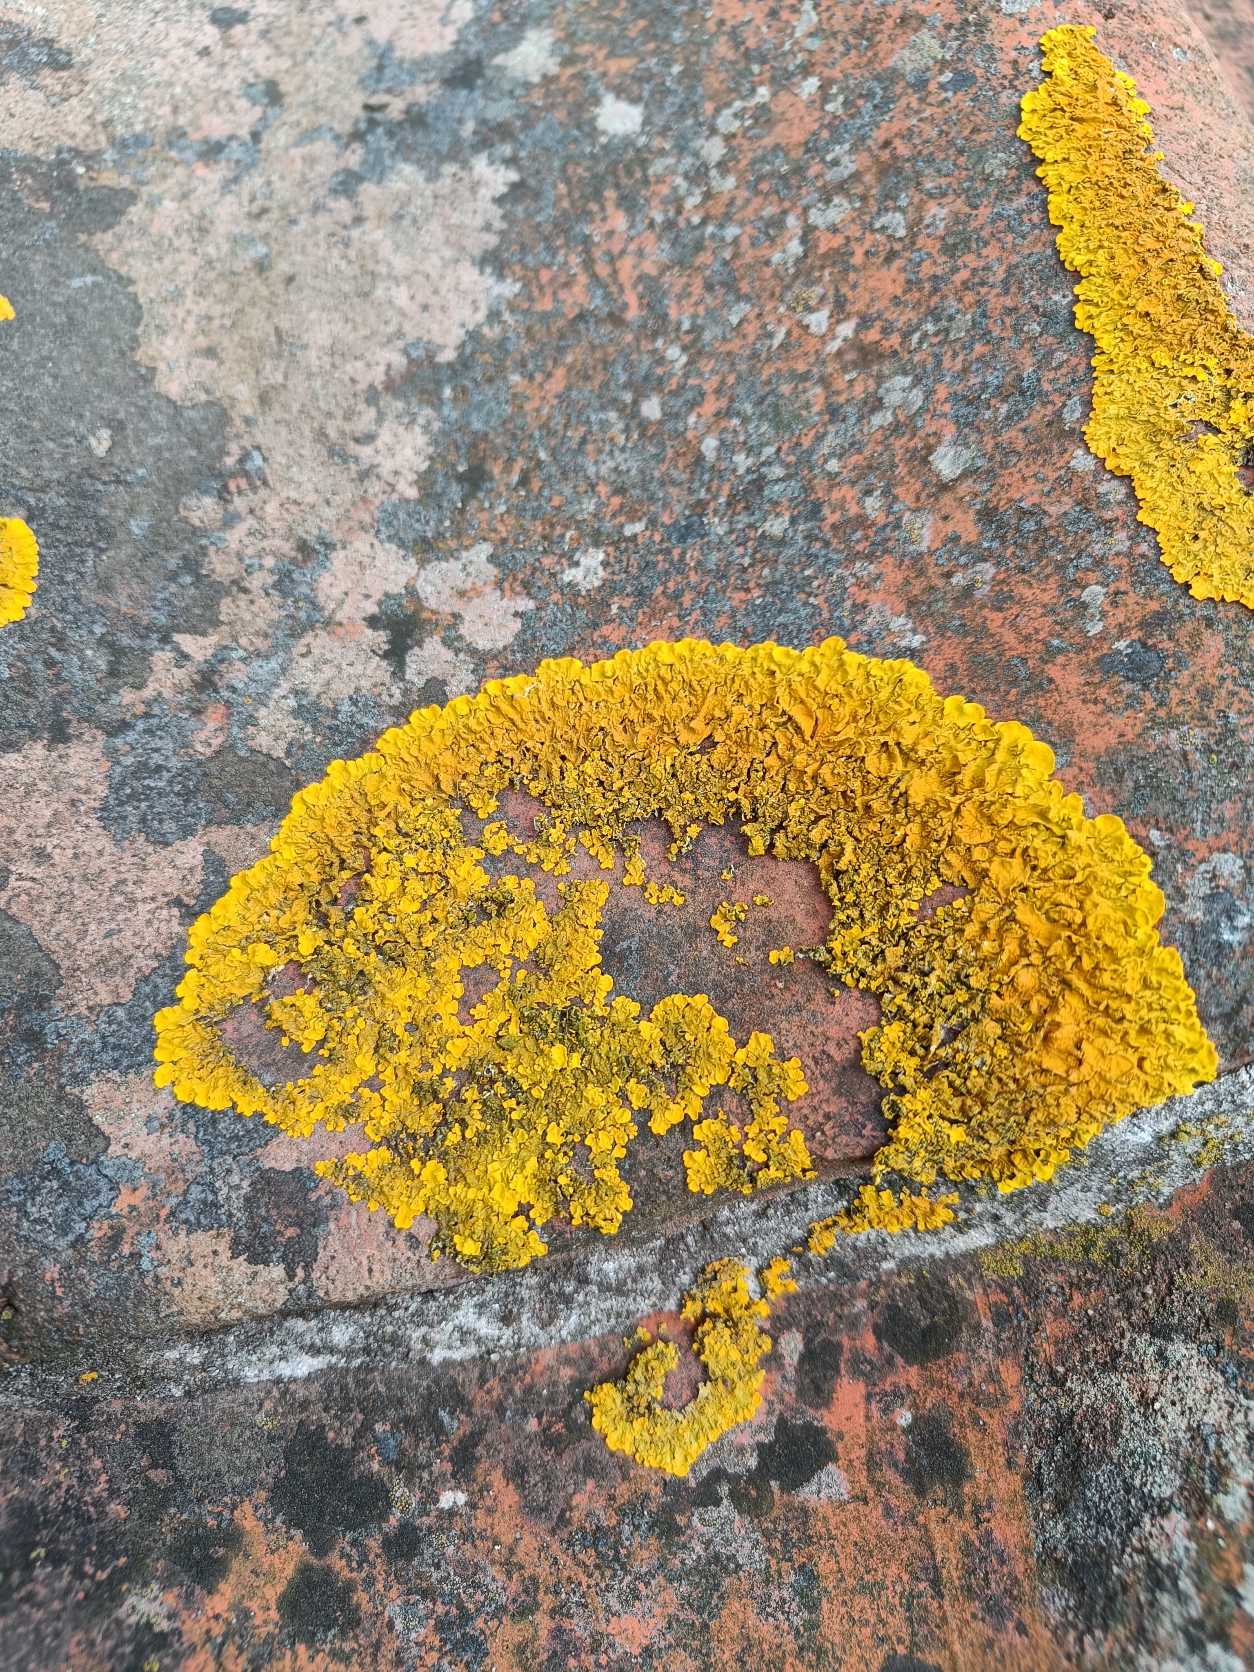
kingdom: Fungi
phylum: Ascomycota
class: Lecanoromycetes
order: Teloschistales
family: Teloschistaceae
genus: Xanthoria
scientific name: Xanthoria parietina
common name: Almindelig væggelav
